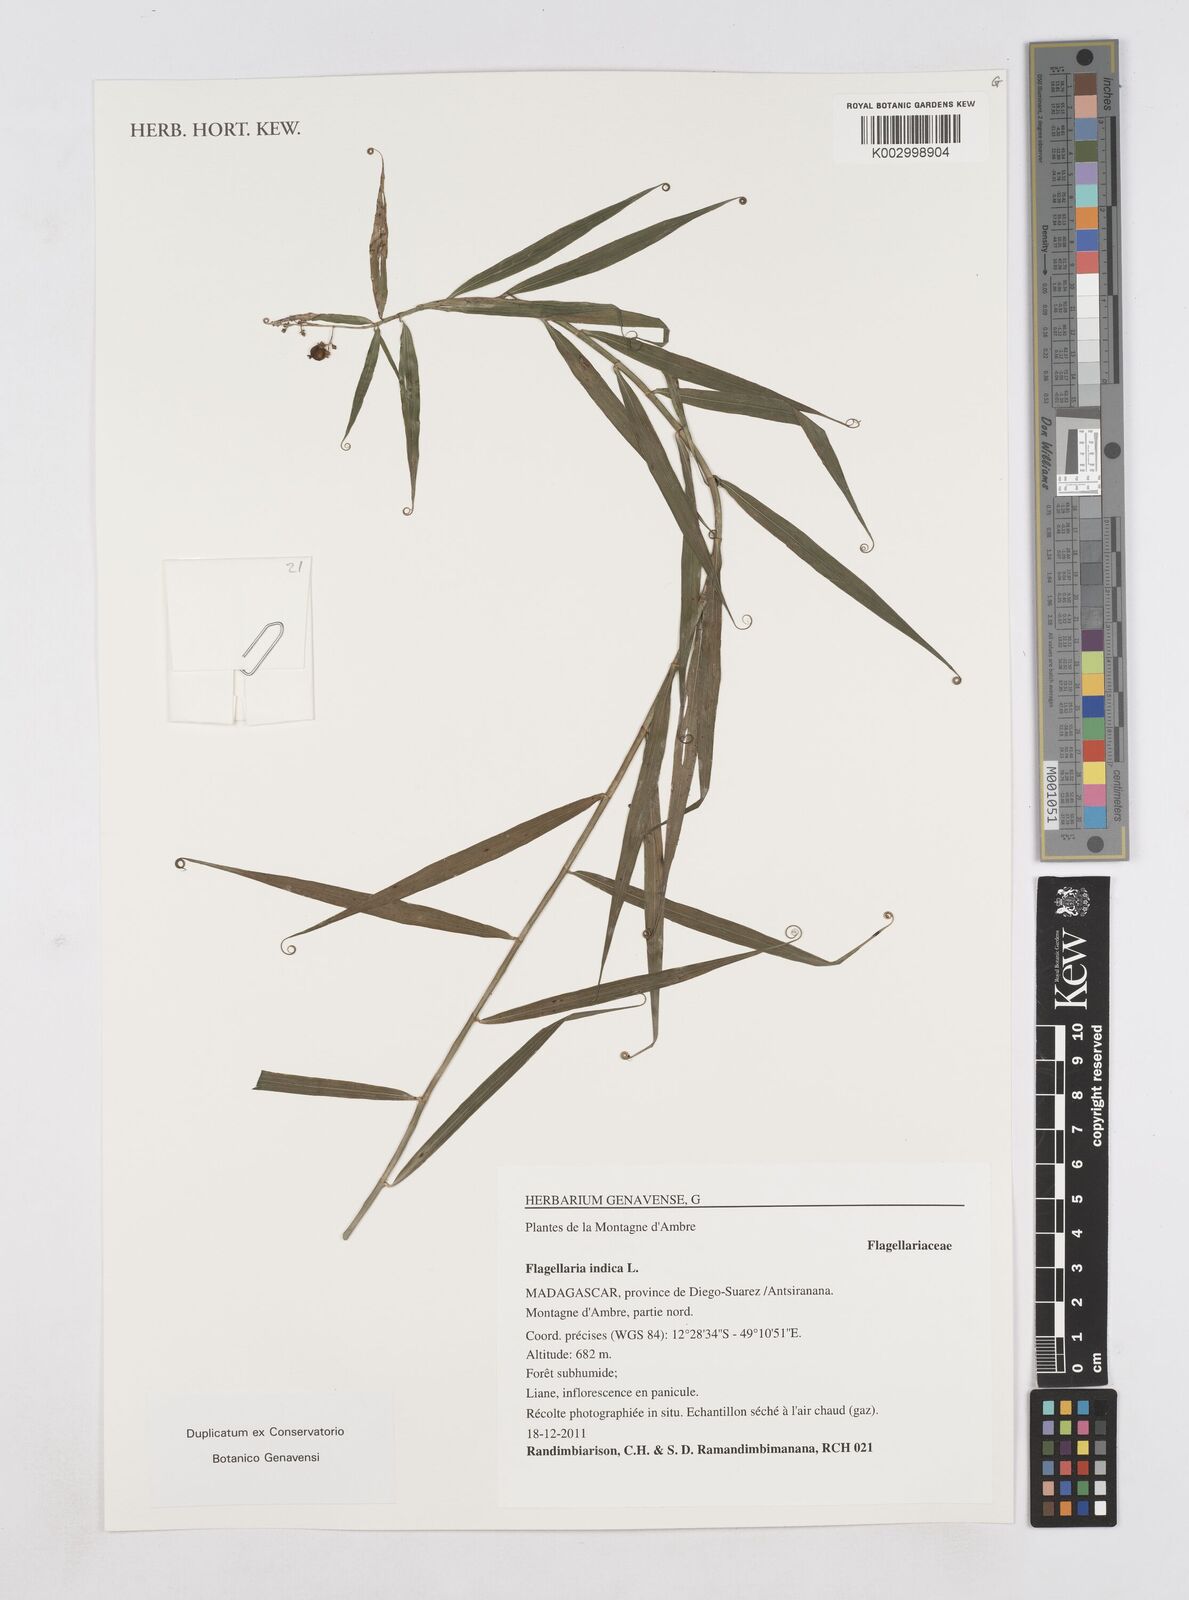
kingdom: Plantae
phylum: Tracheophyta
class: Liliopsida
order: Poales
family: Flagellariaceae
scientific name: Flagellariaceae
